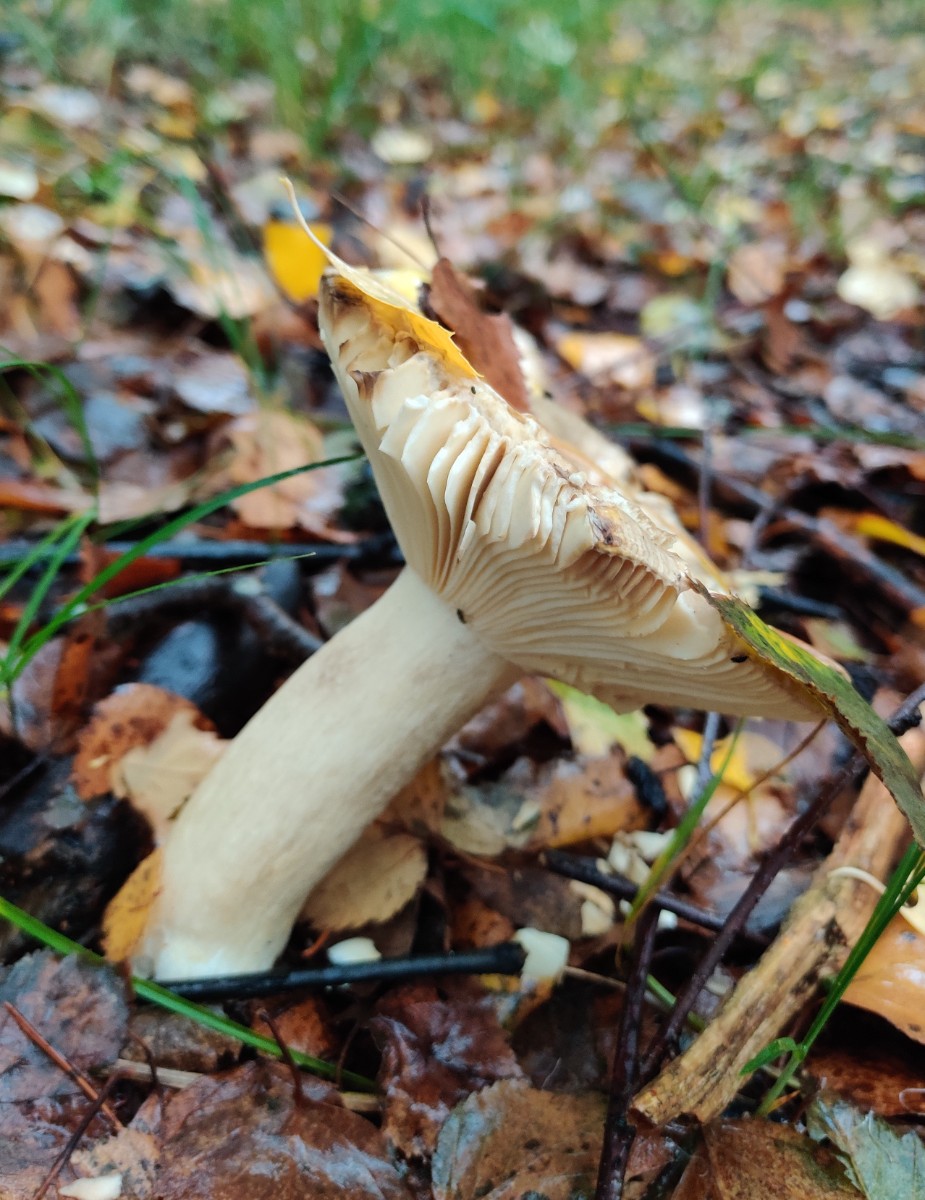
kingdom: Fungi
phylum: Basidiomycota
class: Agaricomycetes
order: Russulales
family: Russulaceae
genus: Russula
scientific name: Russula claroflava
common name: birke-skørhat
